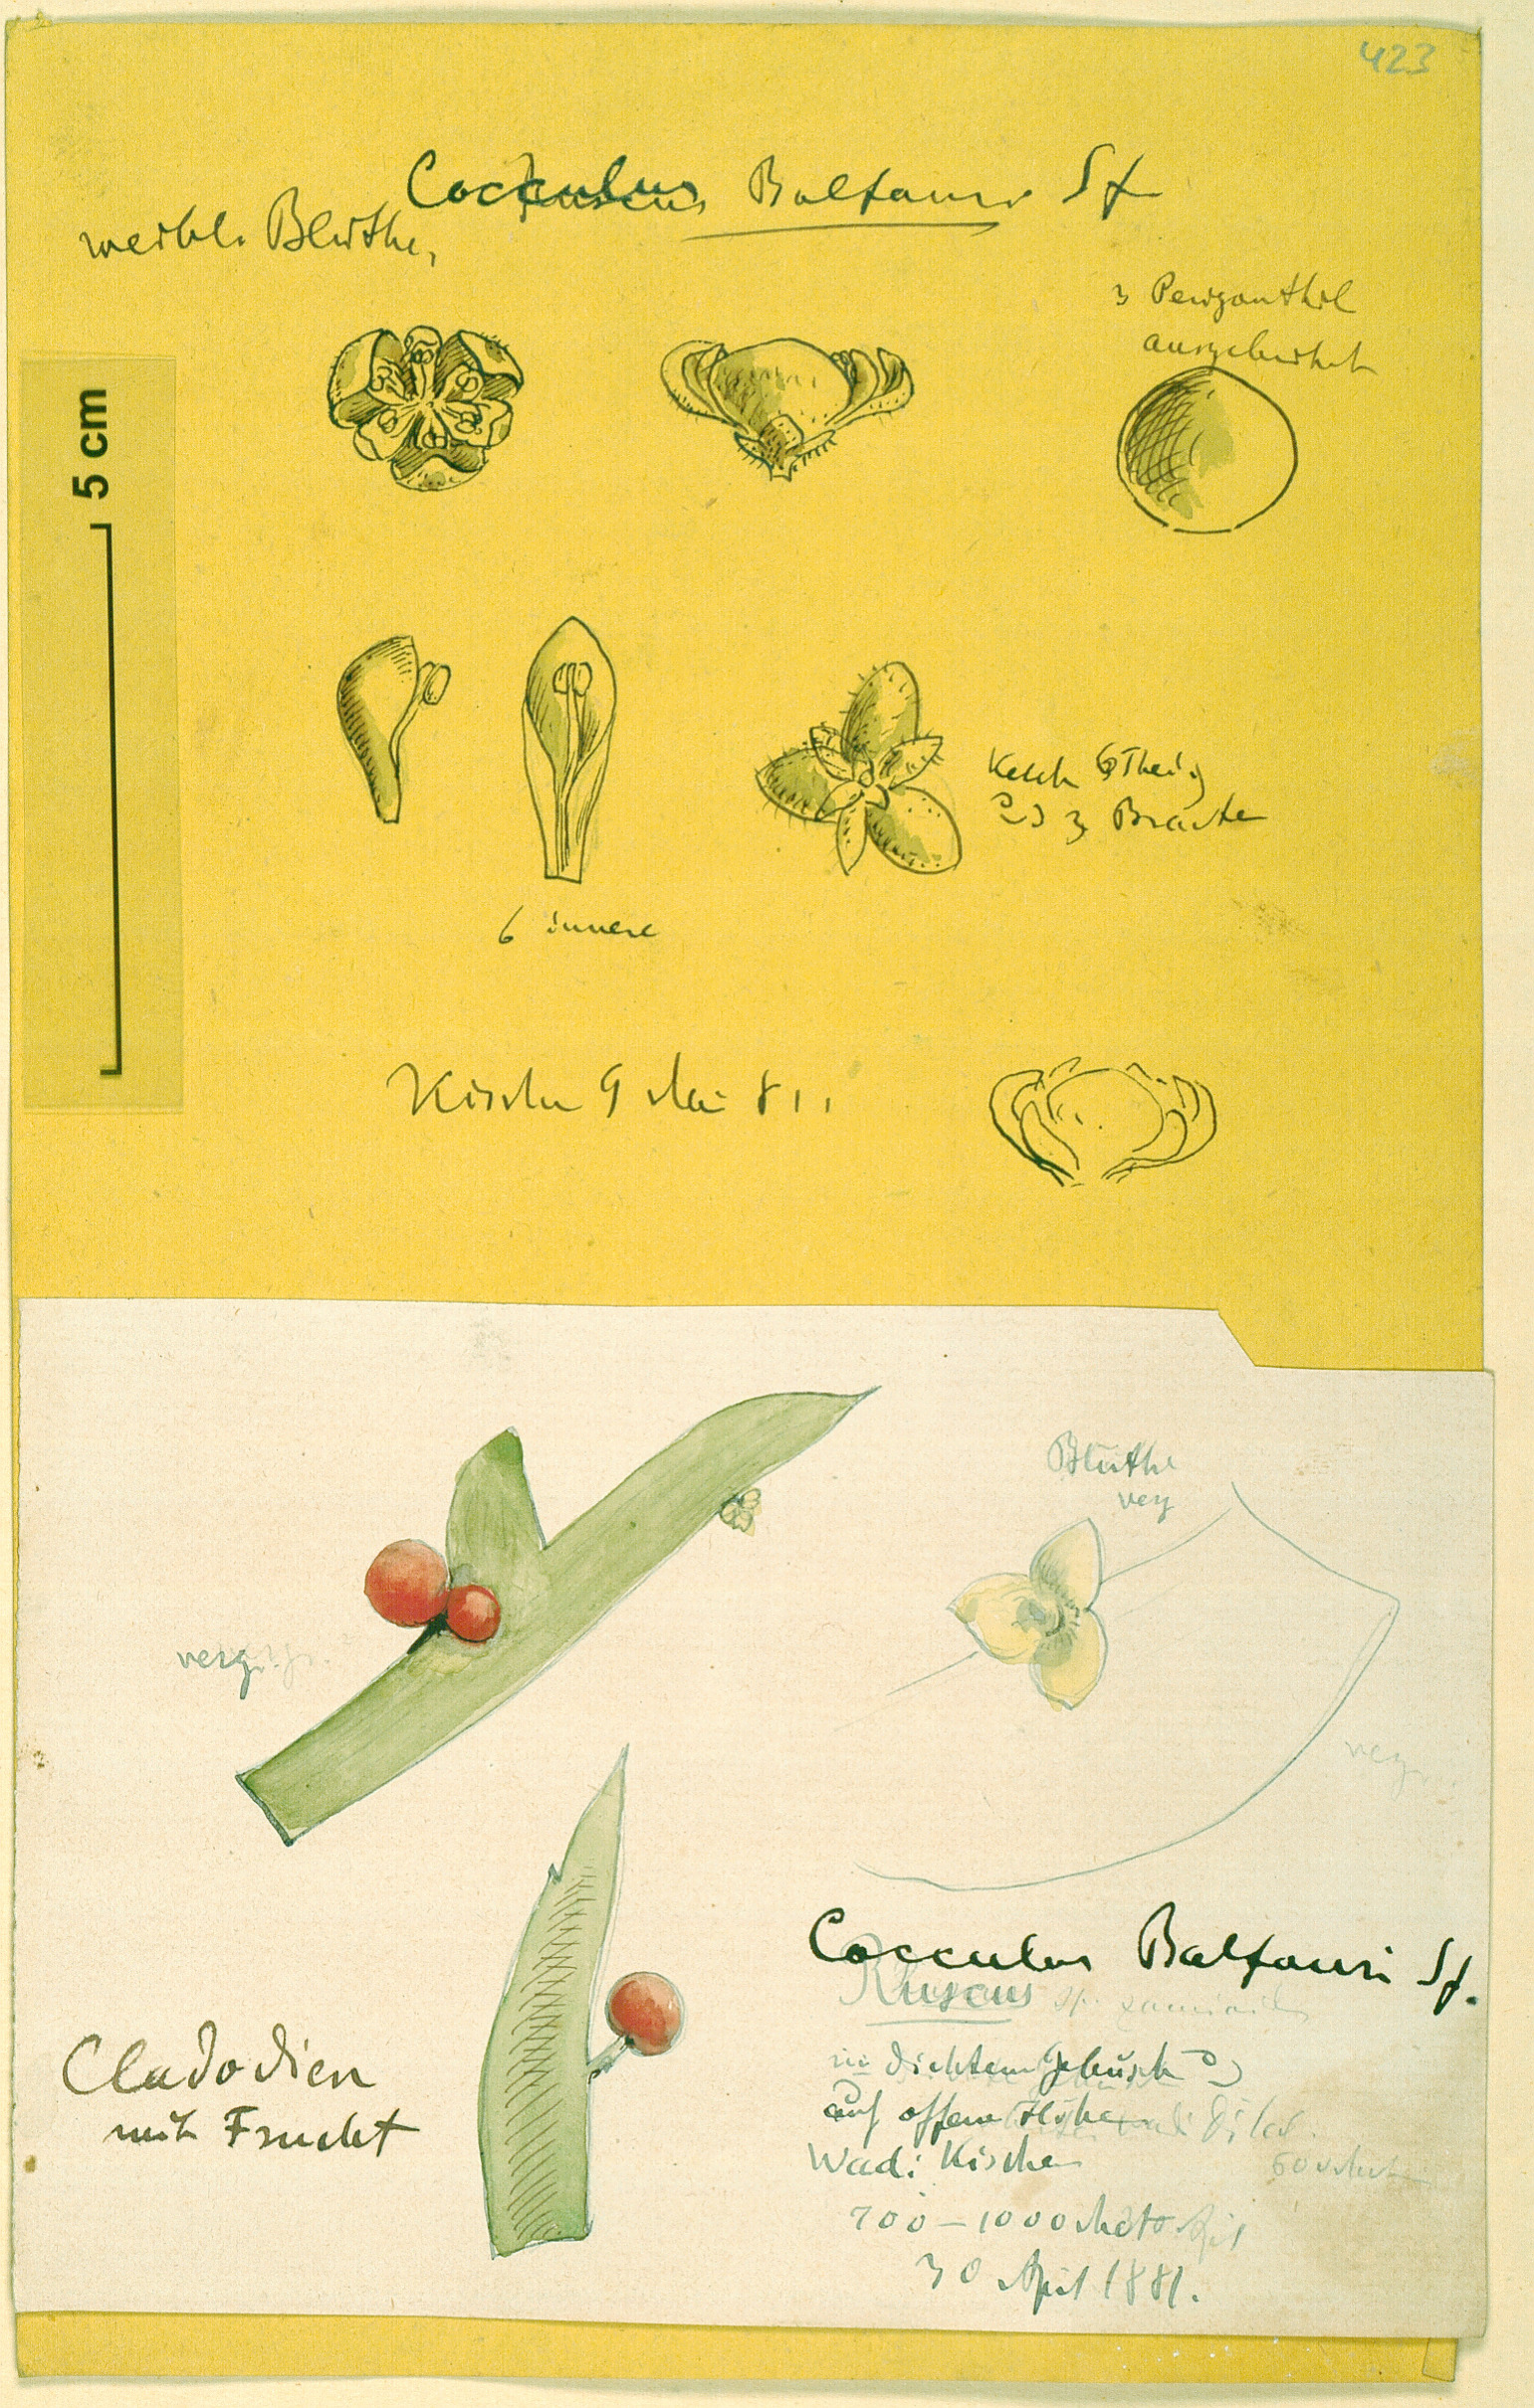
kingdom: Plantae
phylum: Tracheophyta
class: Magnoliopsida
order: Ranunculales
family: Menispermaceae
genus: Cocculus
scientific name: Cocculus balfourii
